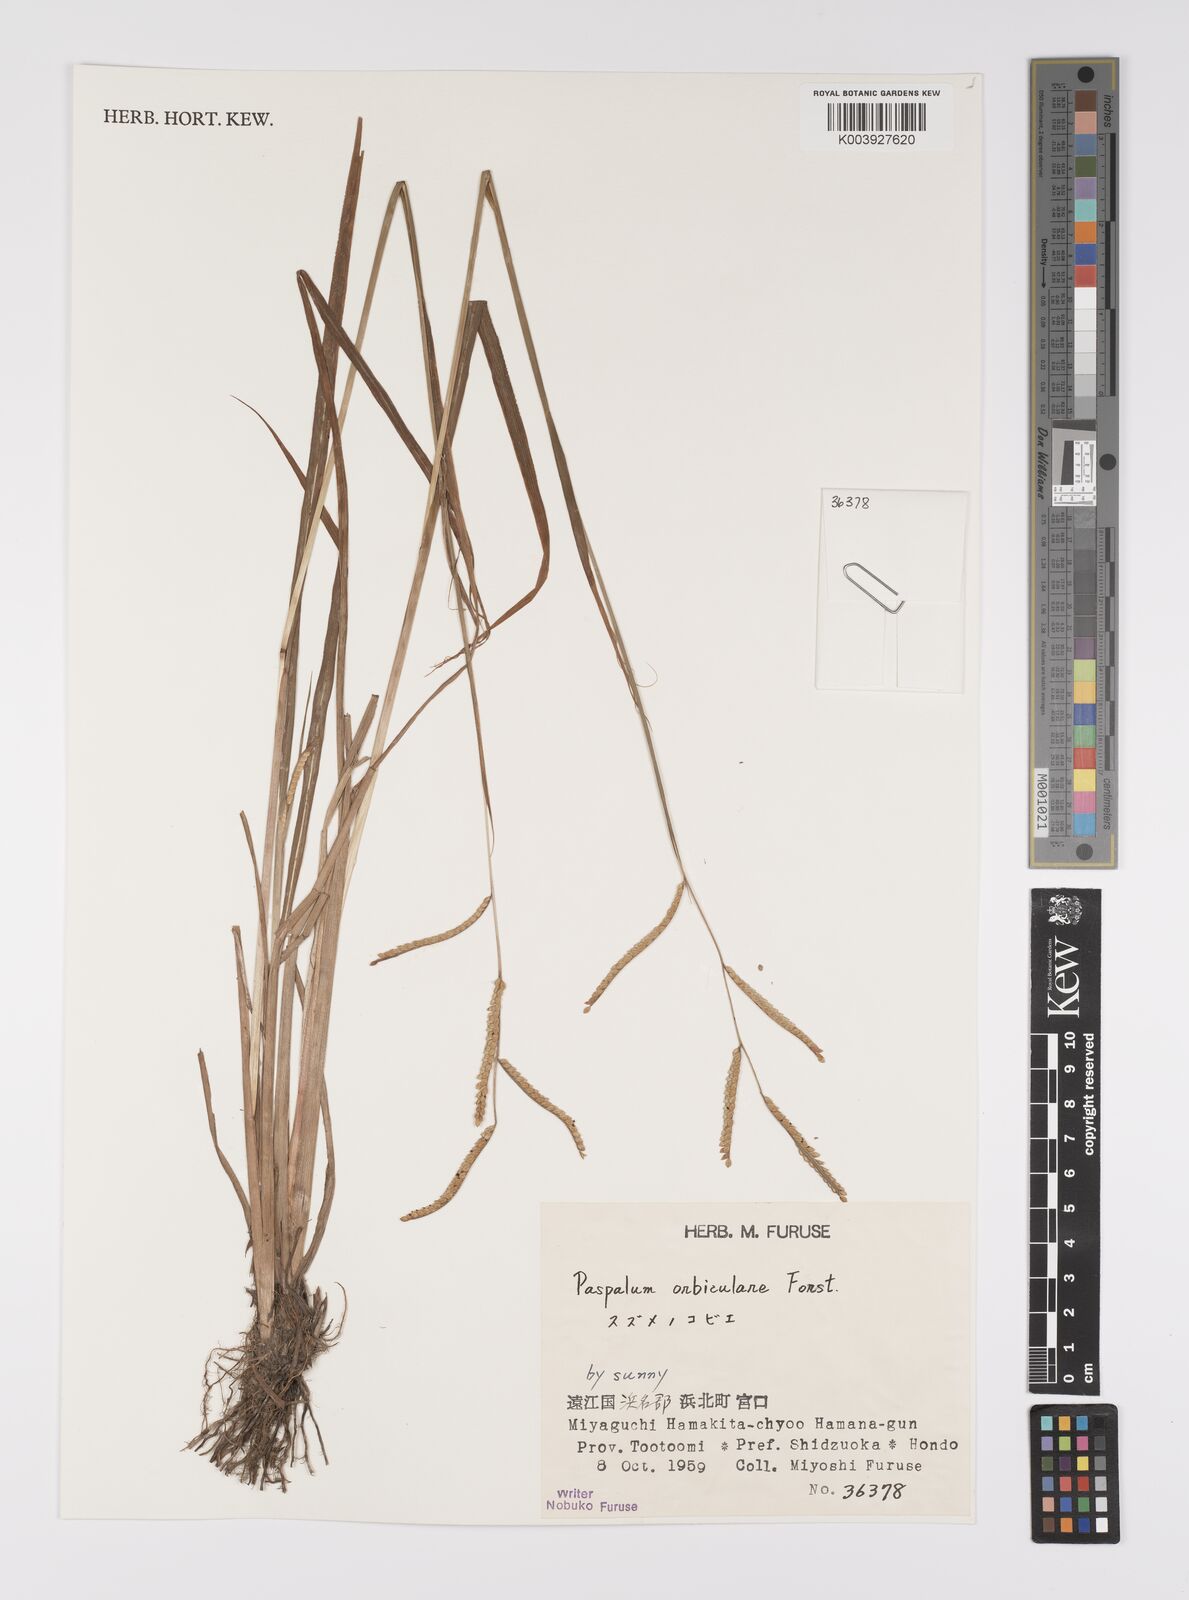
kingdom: Plantae
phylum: Tracheophyta
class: Liliopsida
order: Poales
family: Poaceae
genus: Paspalum
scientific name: Paspalum scrobiculatum
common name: Kodo millet
